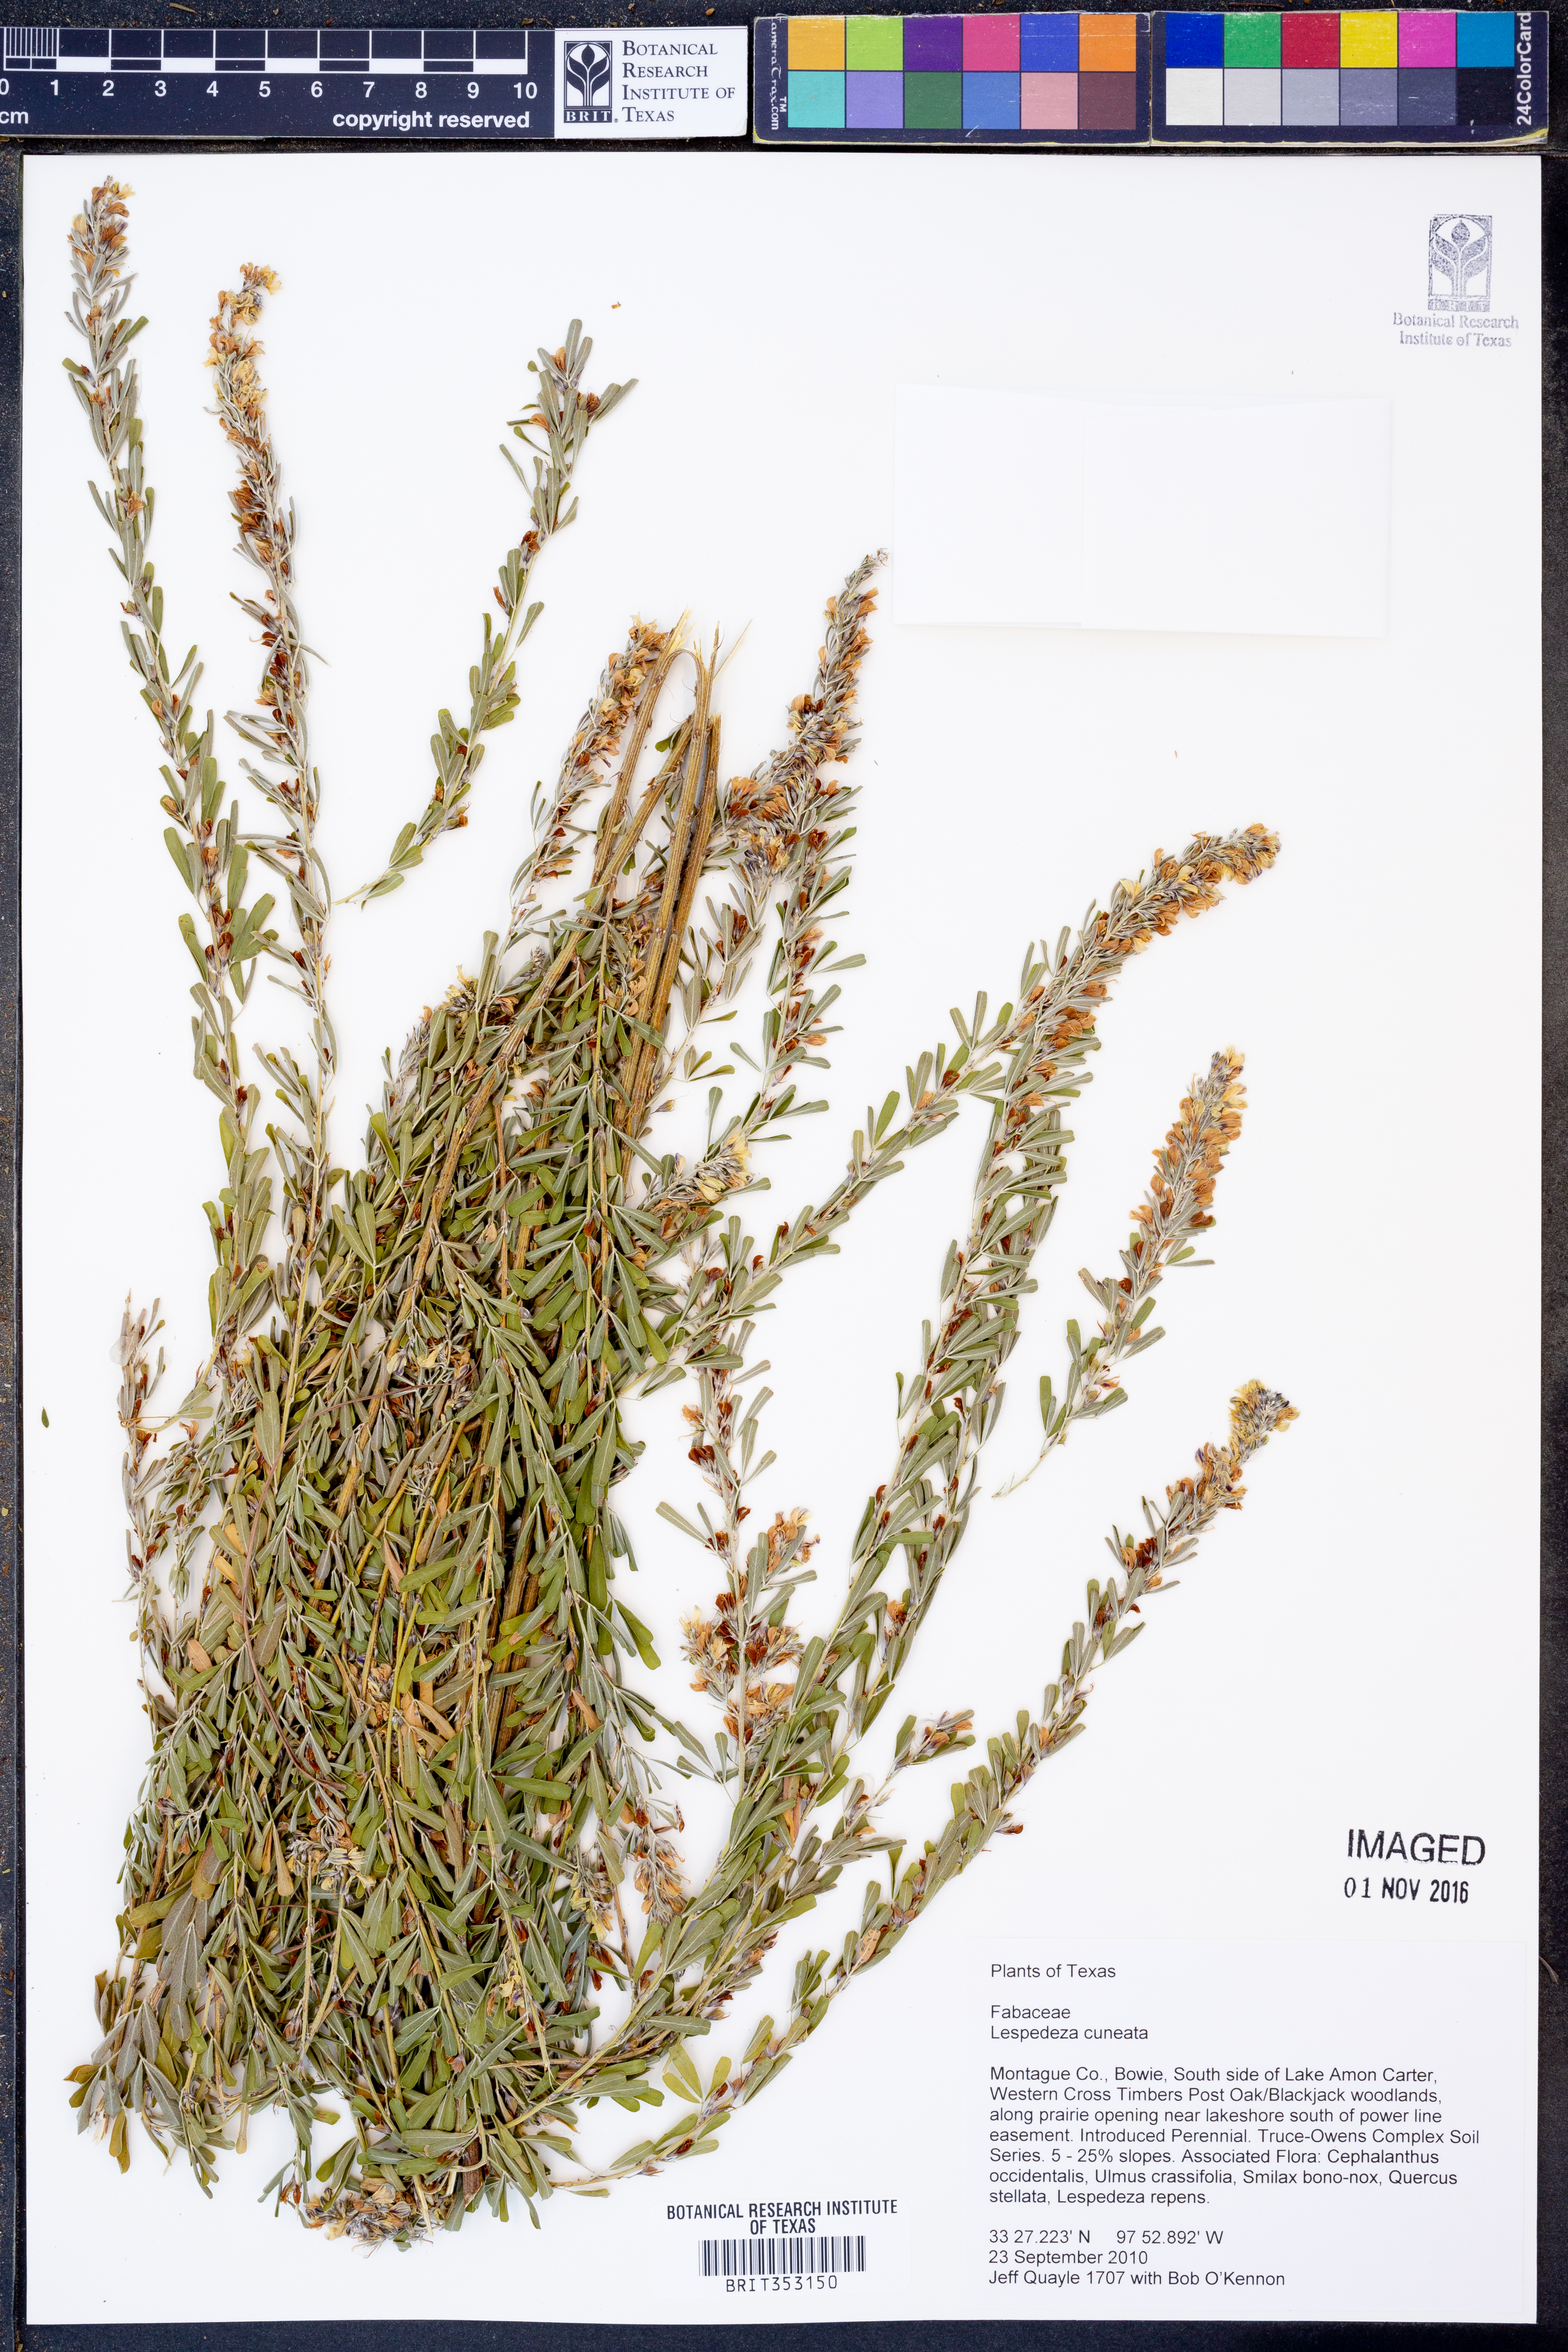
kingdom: Plantae
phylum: Tracheophyta
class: Magnoliopsida
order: Fabales
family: Fabaceae
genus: Lespedeza
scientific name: Lespedeza cuneata
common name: Chinese bush-clover
